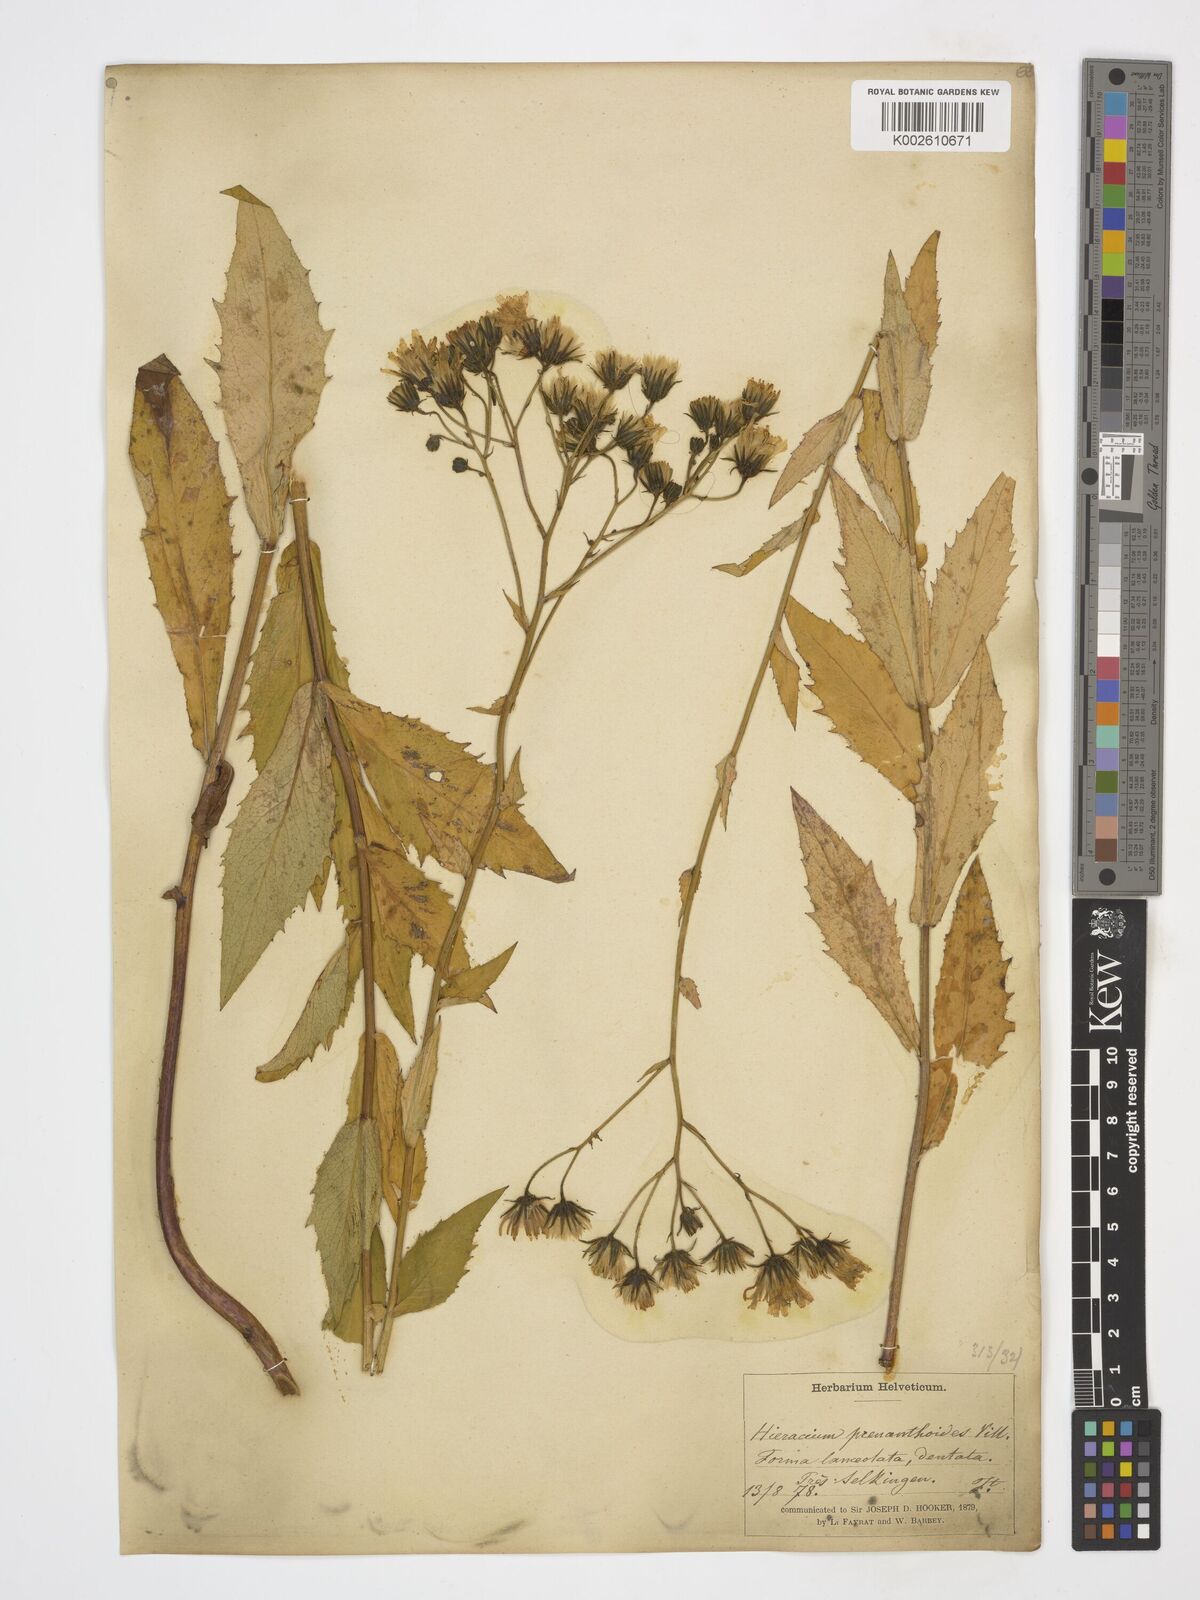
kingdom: Plantae
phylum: Tracheophyta
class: Magnoliopsida
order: Asterales
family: Asteraceae
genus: Hieracium
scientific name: Hieracium prenanthoides
